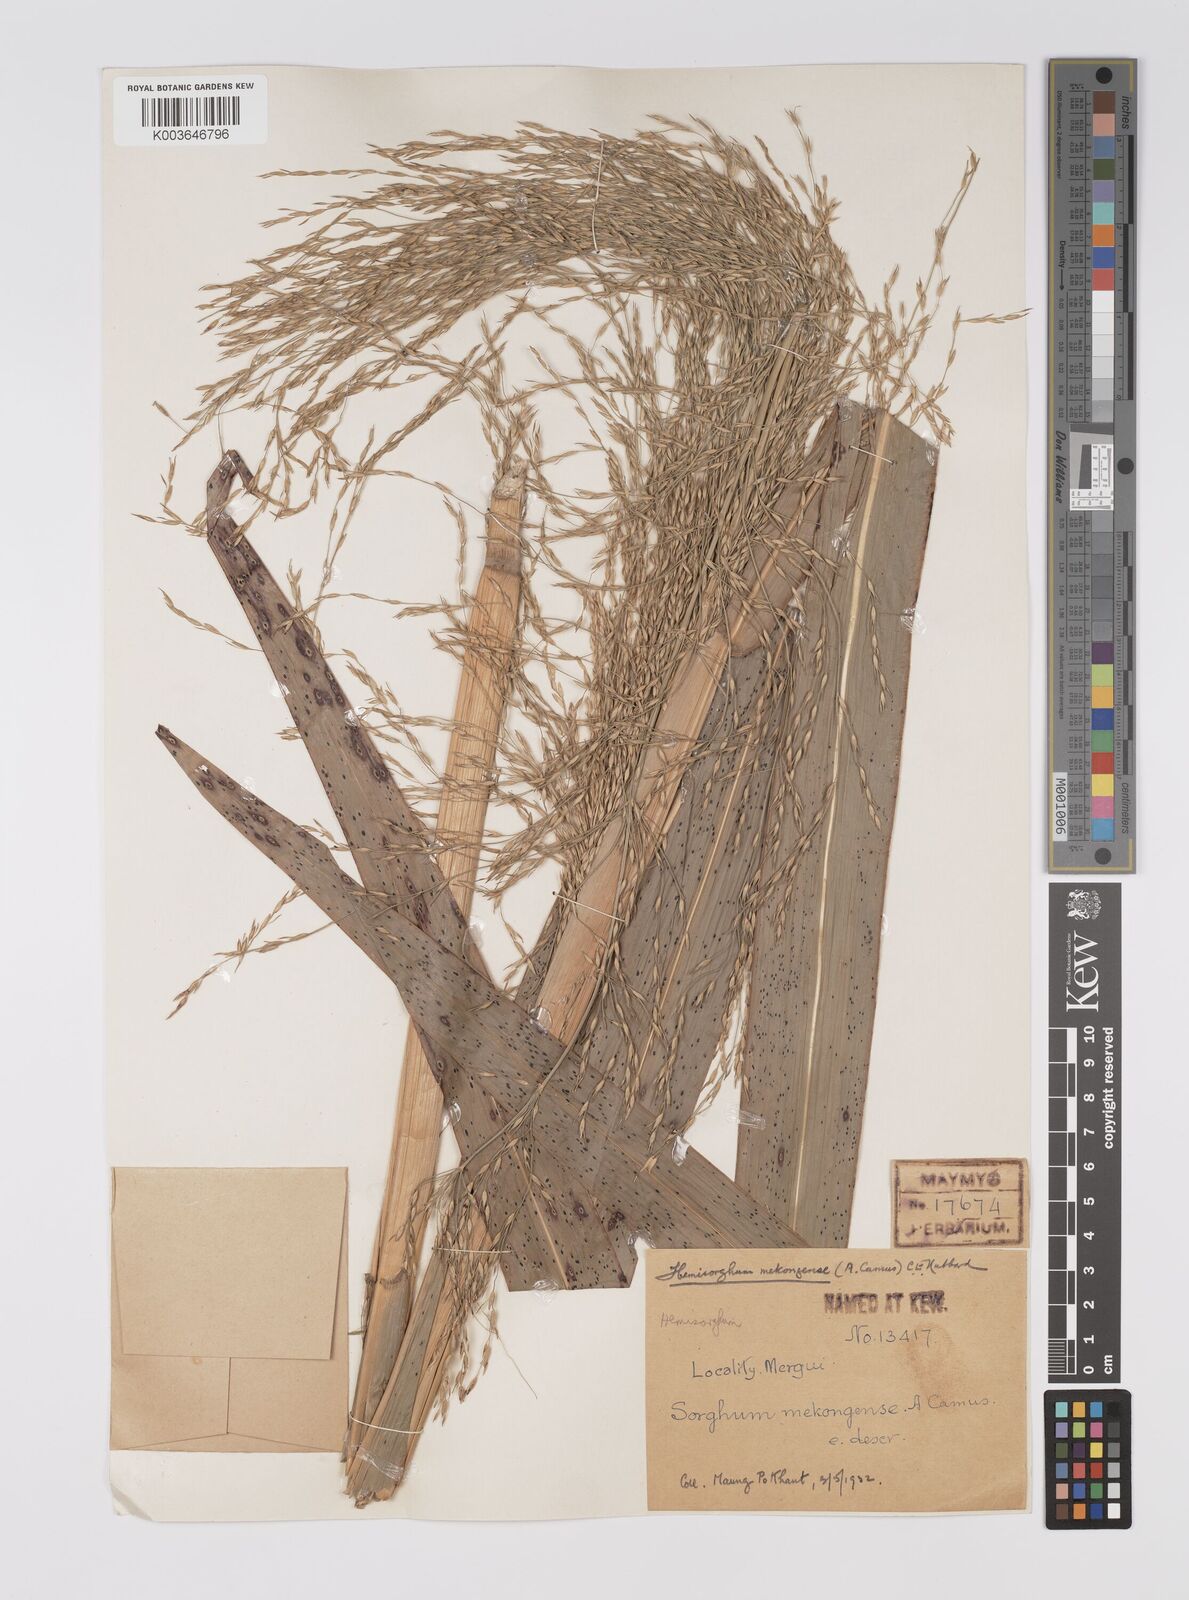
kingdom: Plantae
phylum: Tracheophyta
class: Liliopsida
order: Poales
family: Poaceae
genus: Hemisorghum
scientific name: Hemisorghum mekongense
